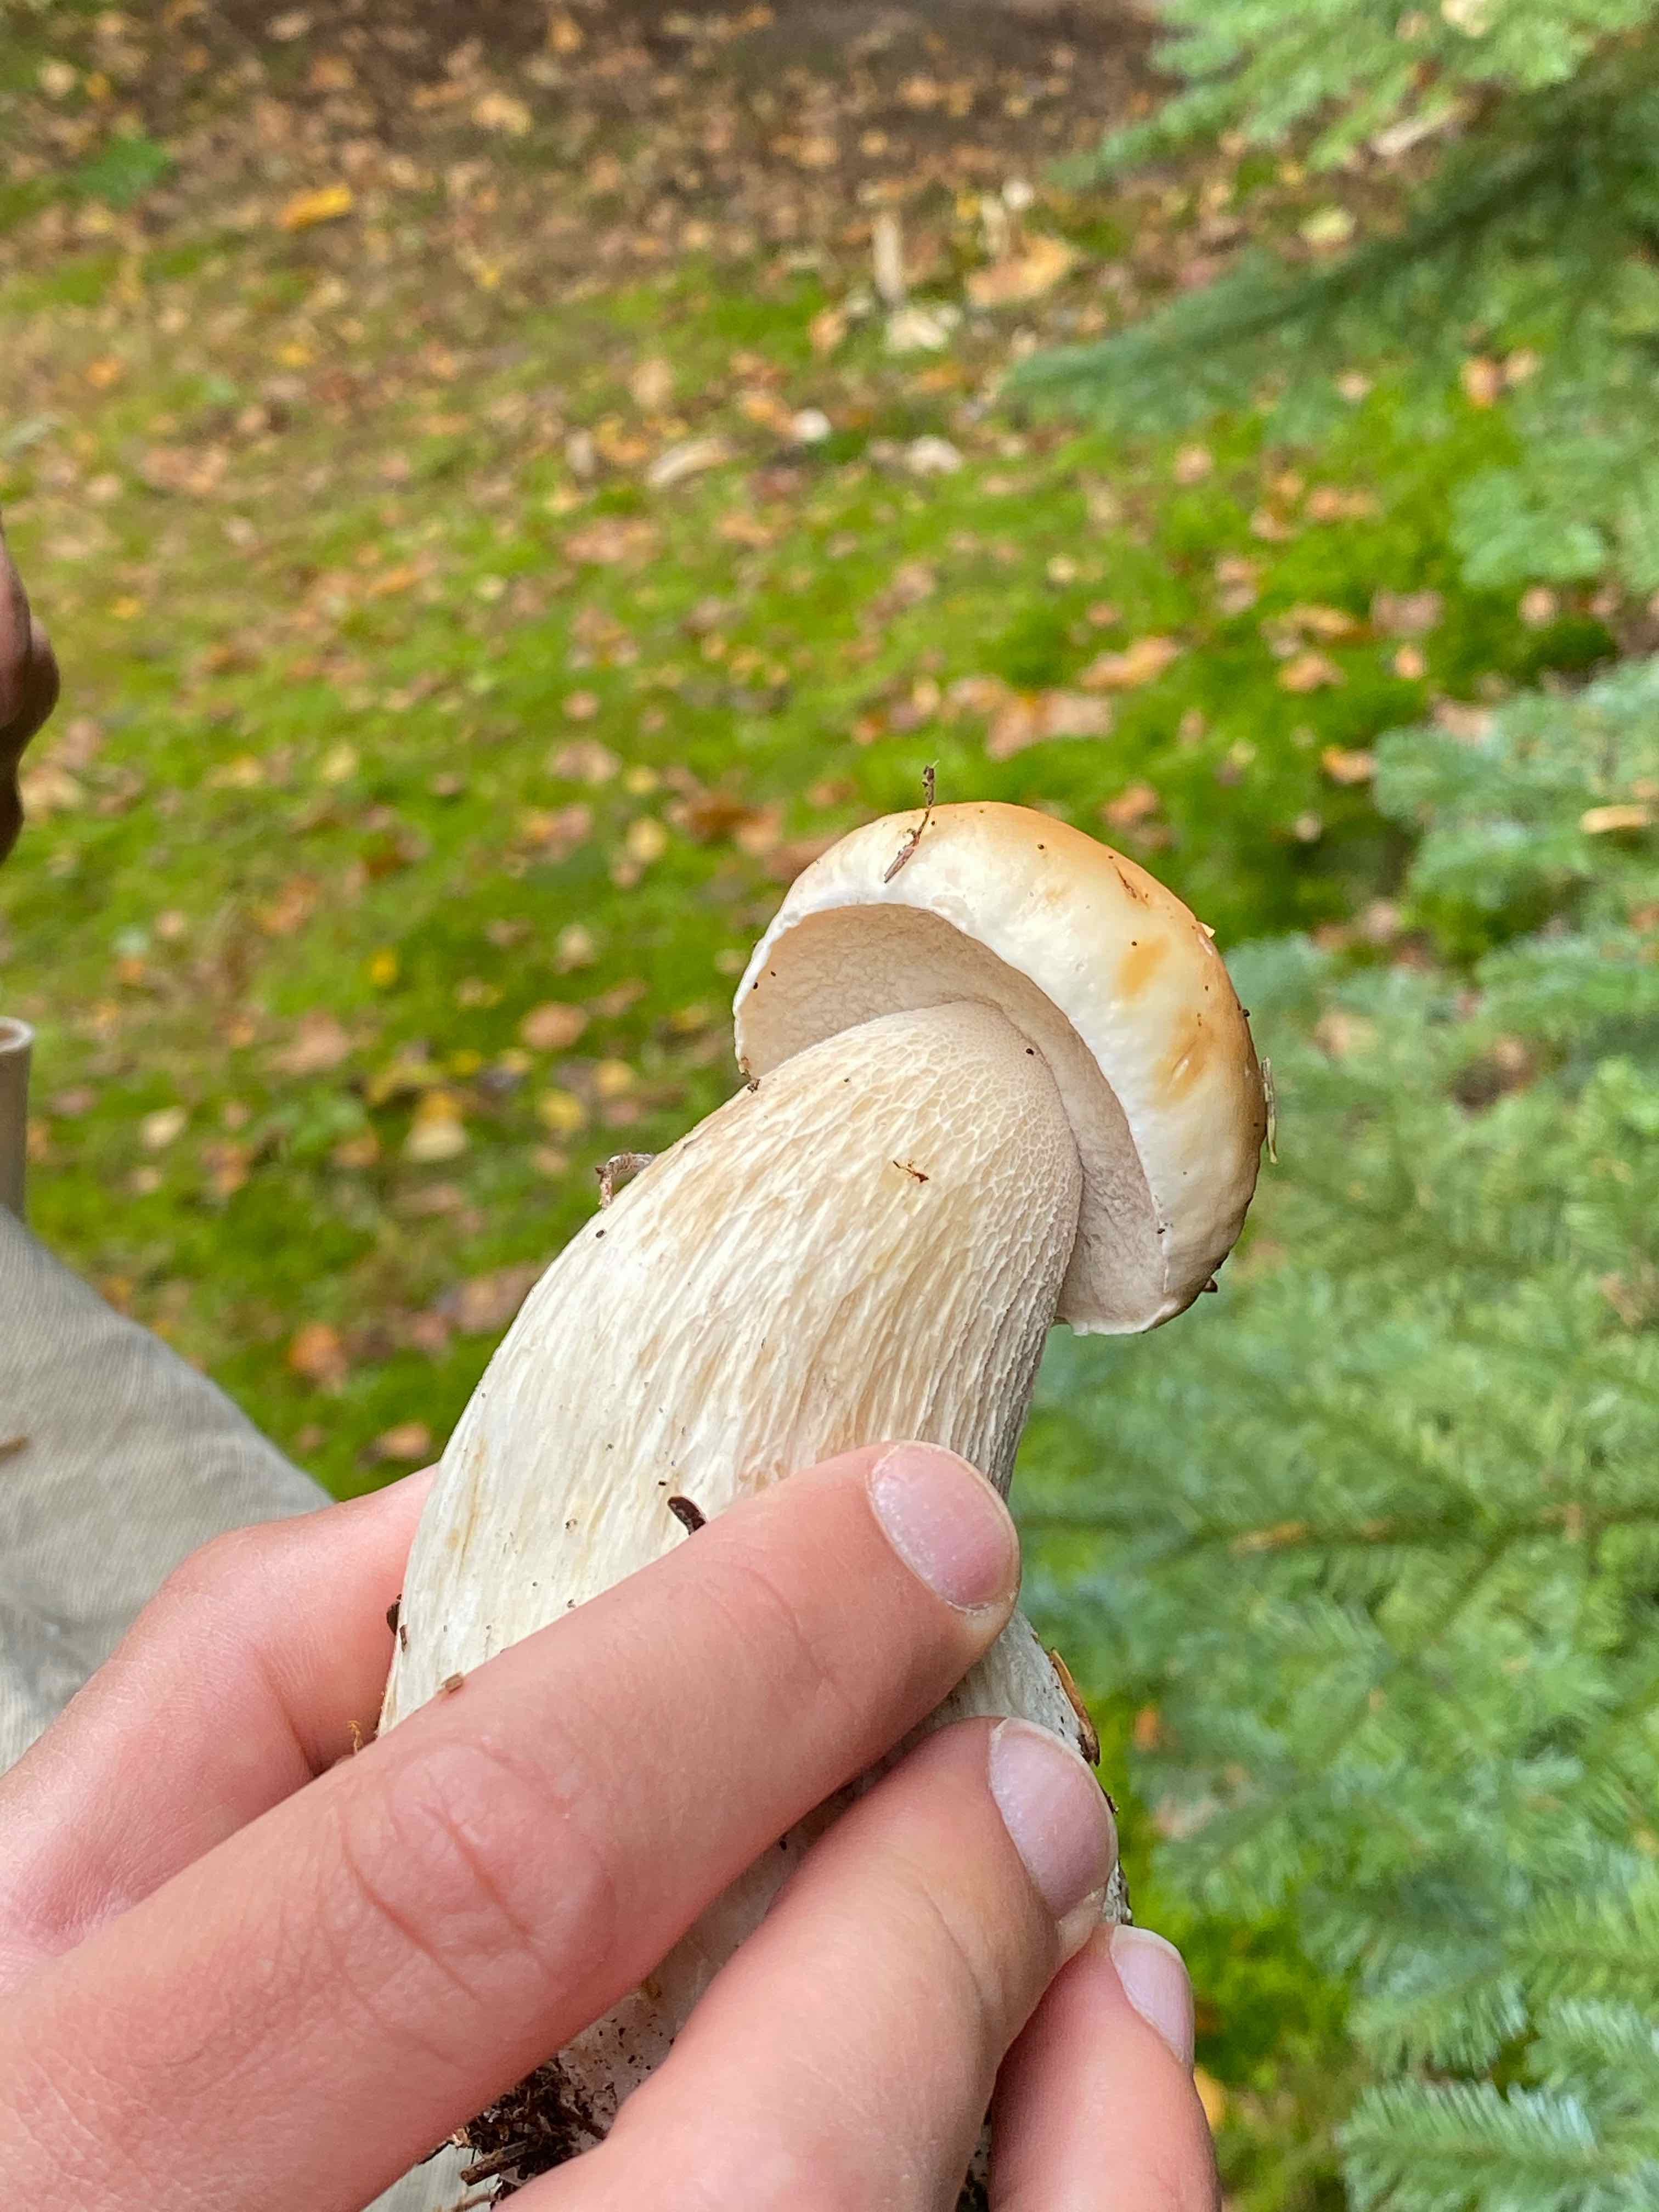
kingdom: Fungi
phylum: Basidiomycota
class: Agaricomycetes
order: Boletales
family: Boletaceae
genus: Boletus
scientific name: Boletus edulis
